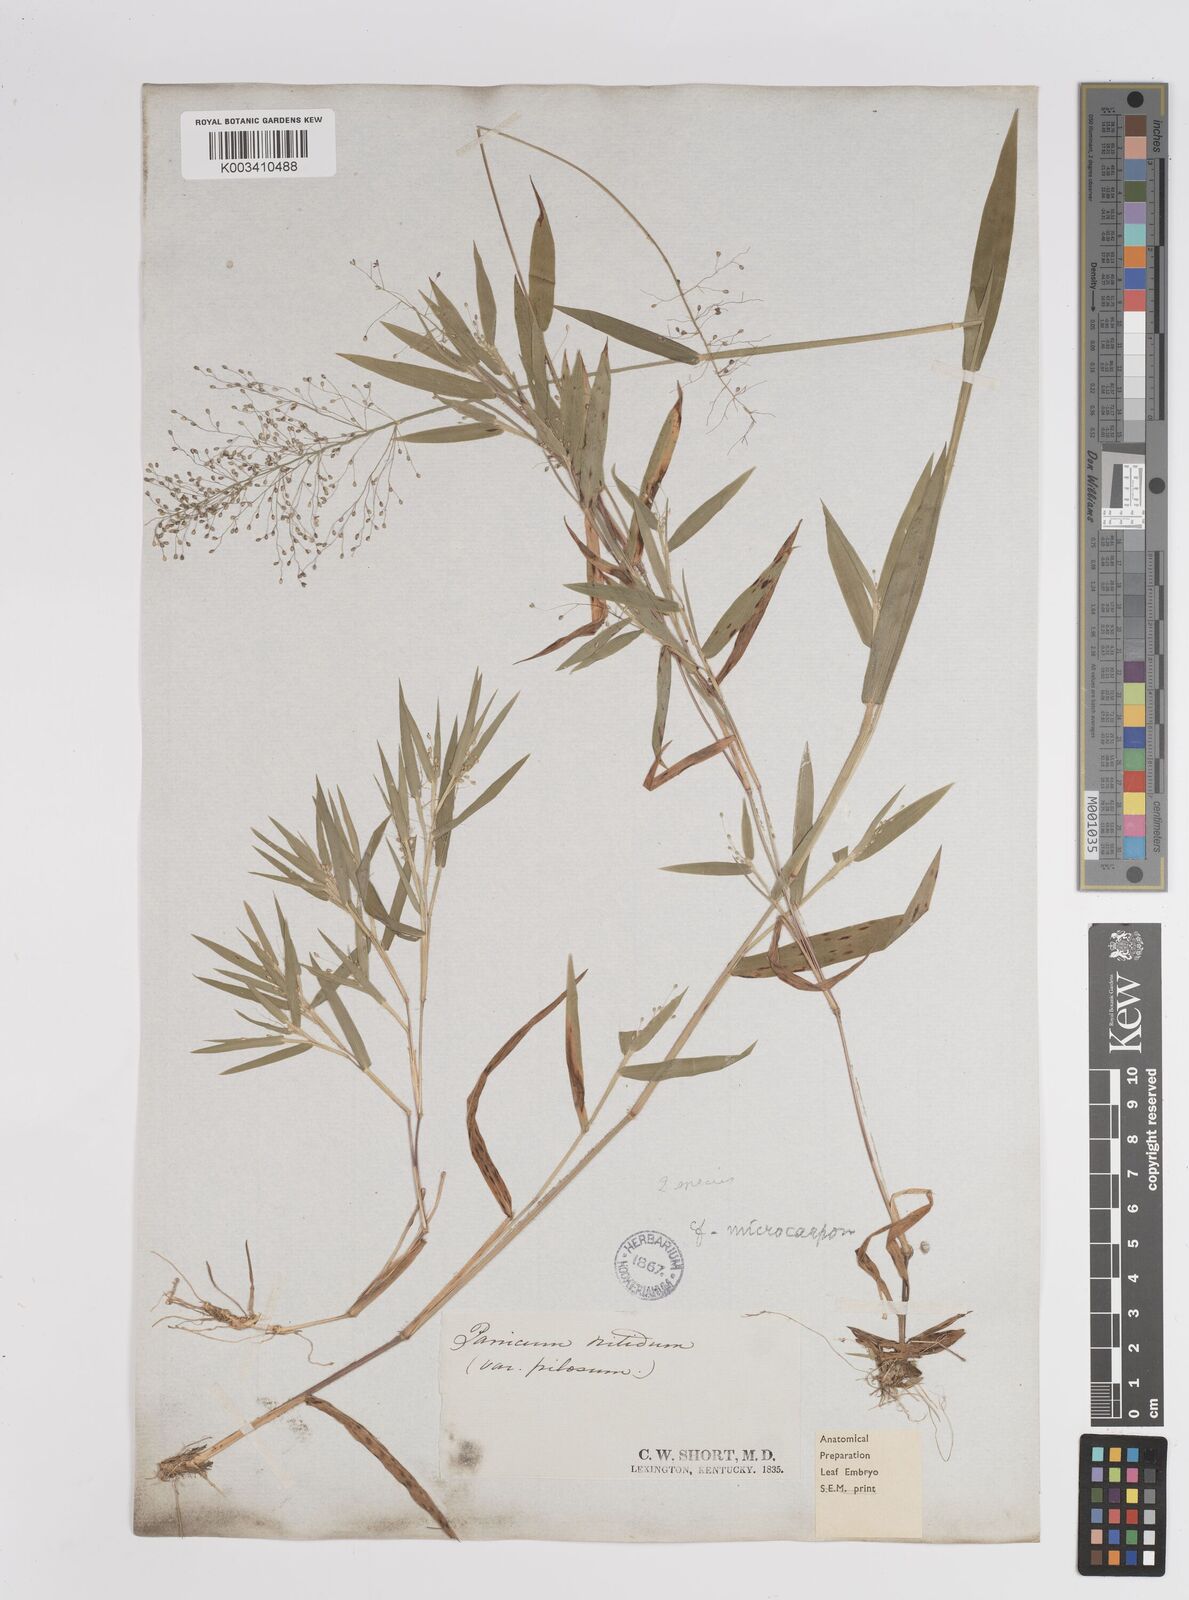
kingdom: Plantae
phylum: Tracheophyta
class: Liliopsida
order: Poales
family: Poaceae
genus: Dichanthelium
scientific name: Dichanthelium polyanthes
